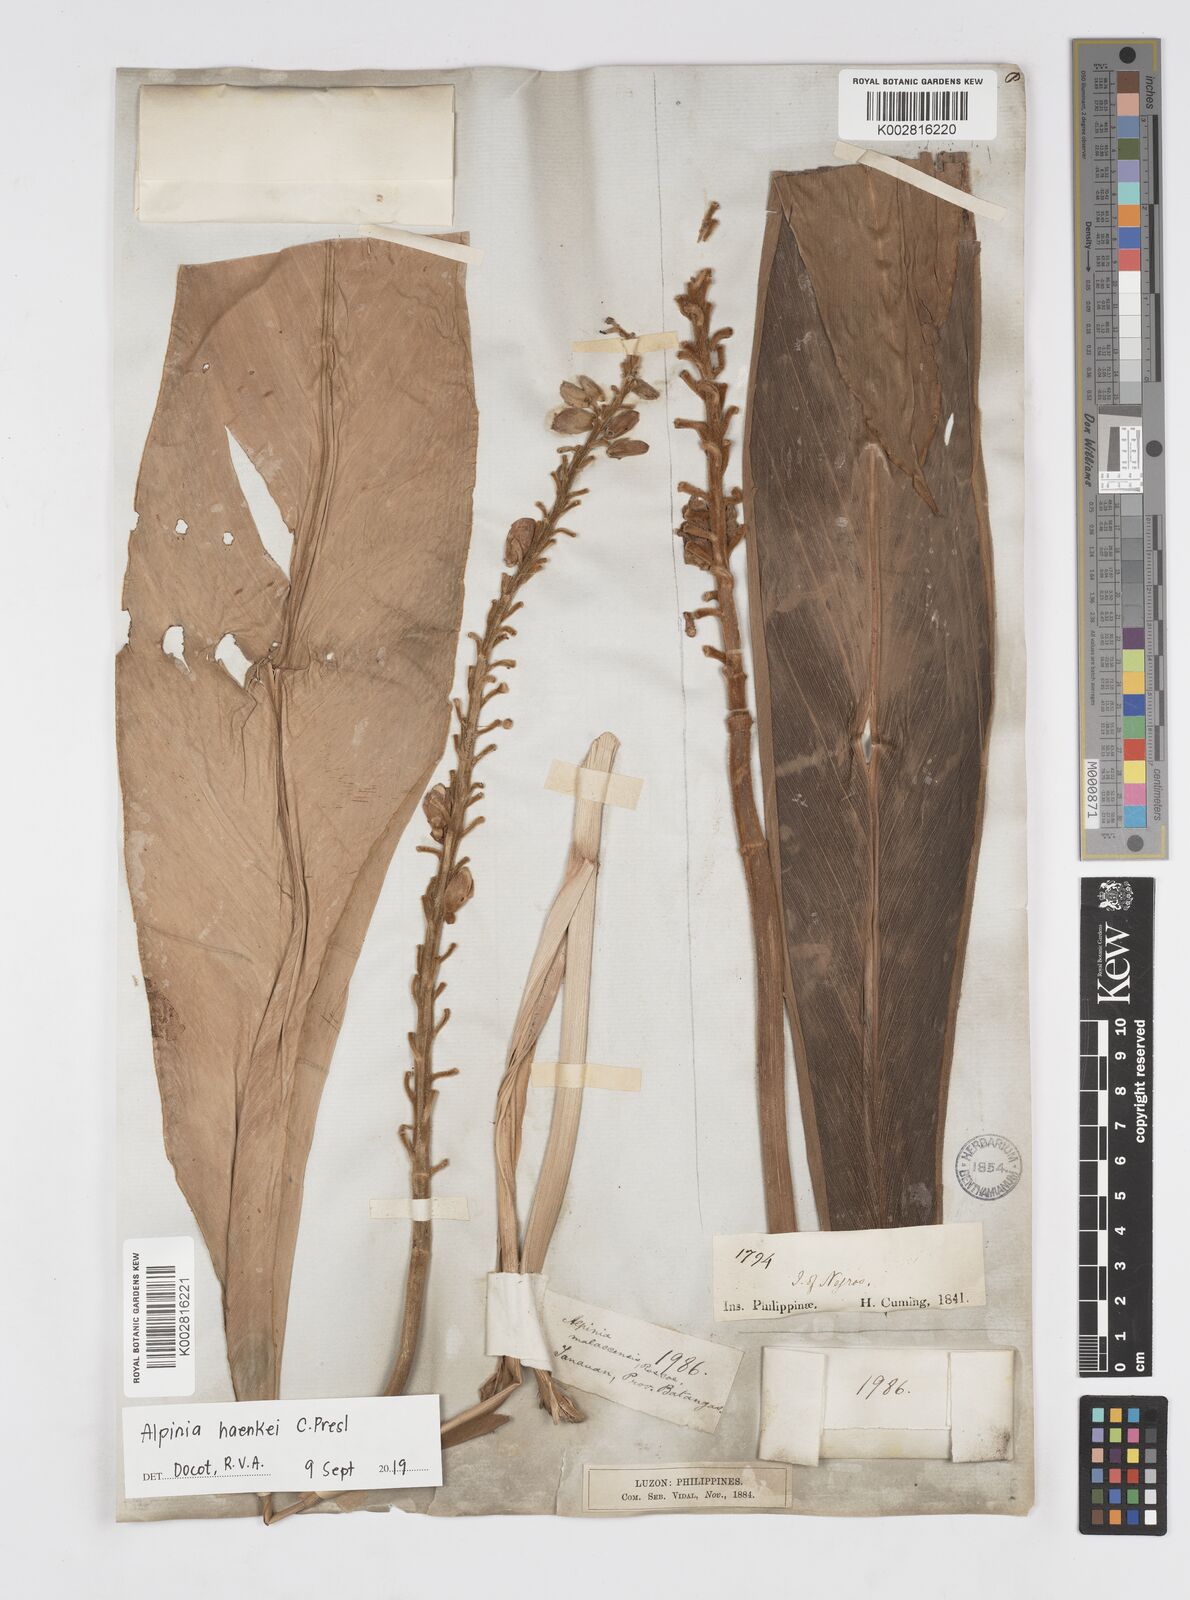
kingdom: Plantae
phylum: Tracheophyta
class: Liliopsida
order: Zingiberales
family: Zingiberaceae
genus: Alpinia
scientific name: Alpinia haenkei
